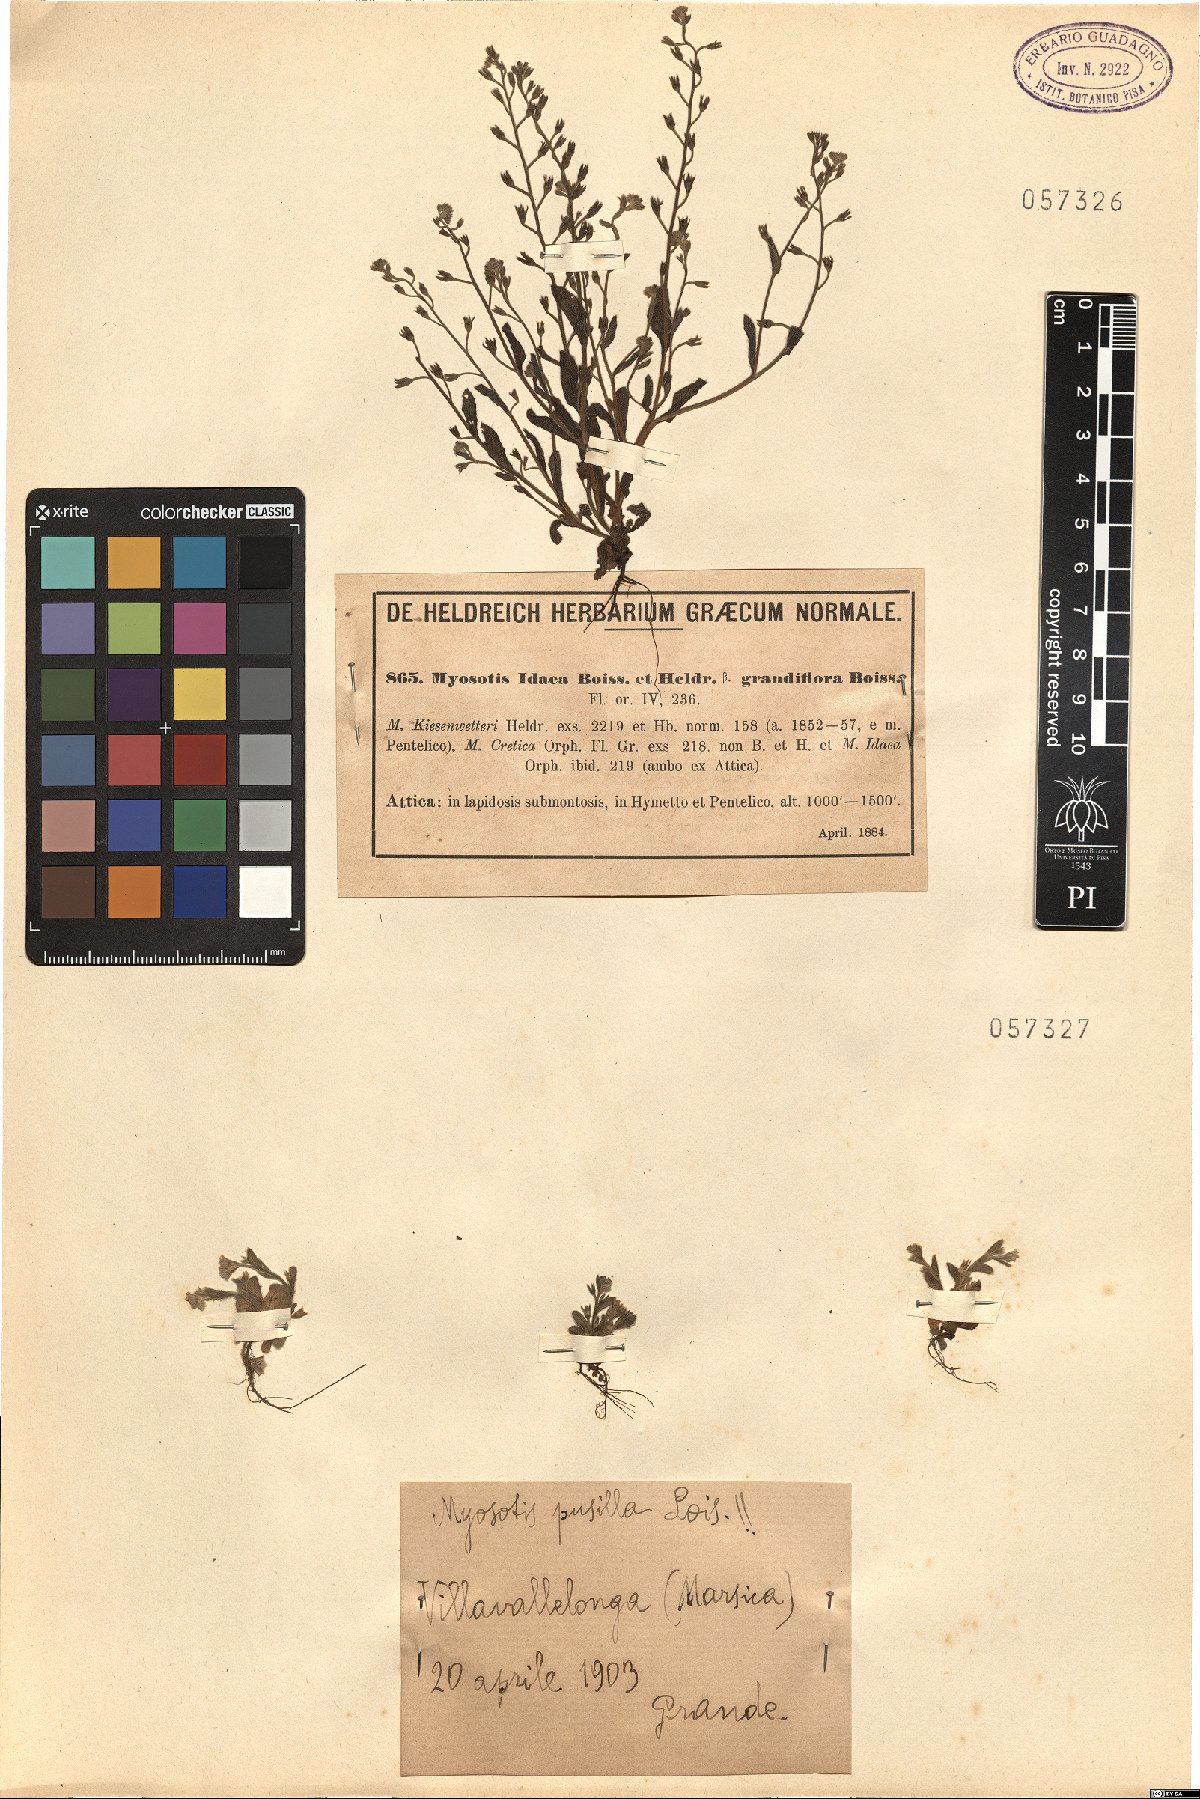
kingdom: Plantae
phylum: Tracheophyta
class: Magnoliopsida
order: Boraginales
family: Boraginaceae
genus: Myosotis
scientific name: Myosotis pusilla
